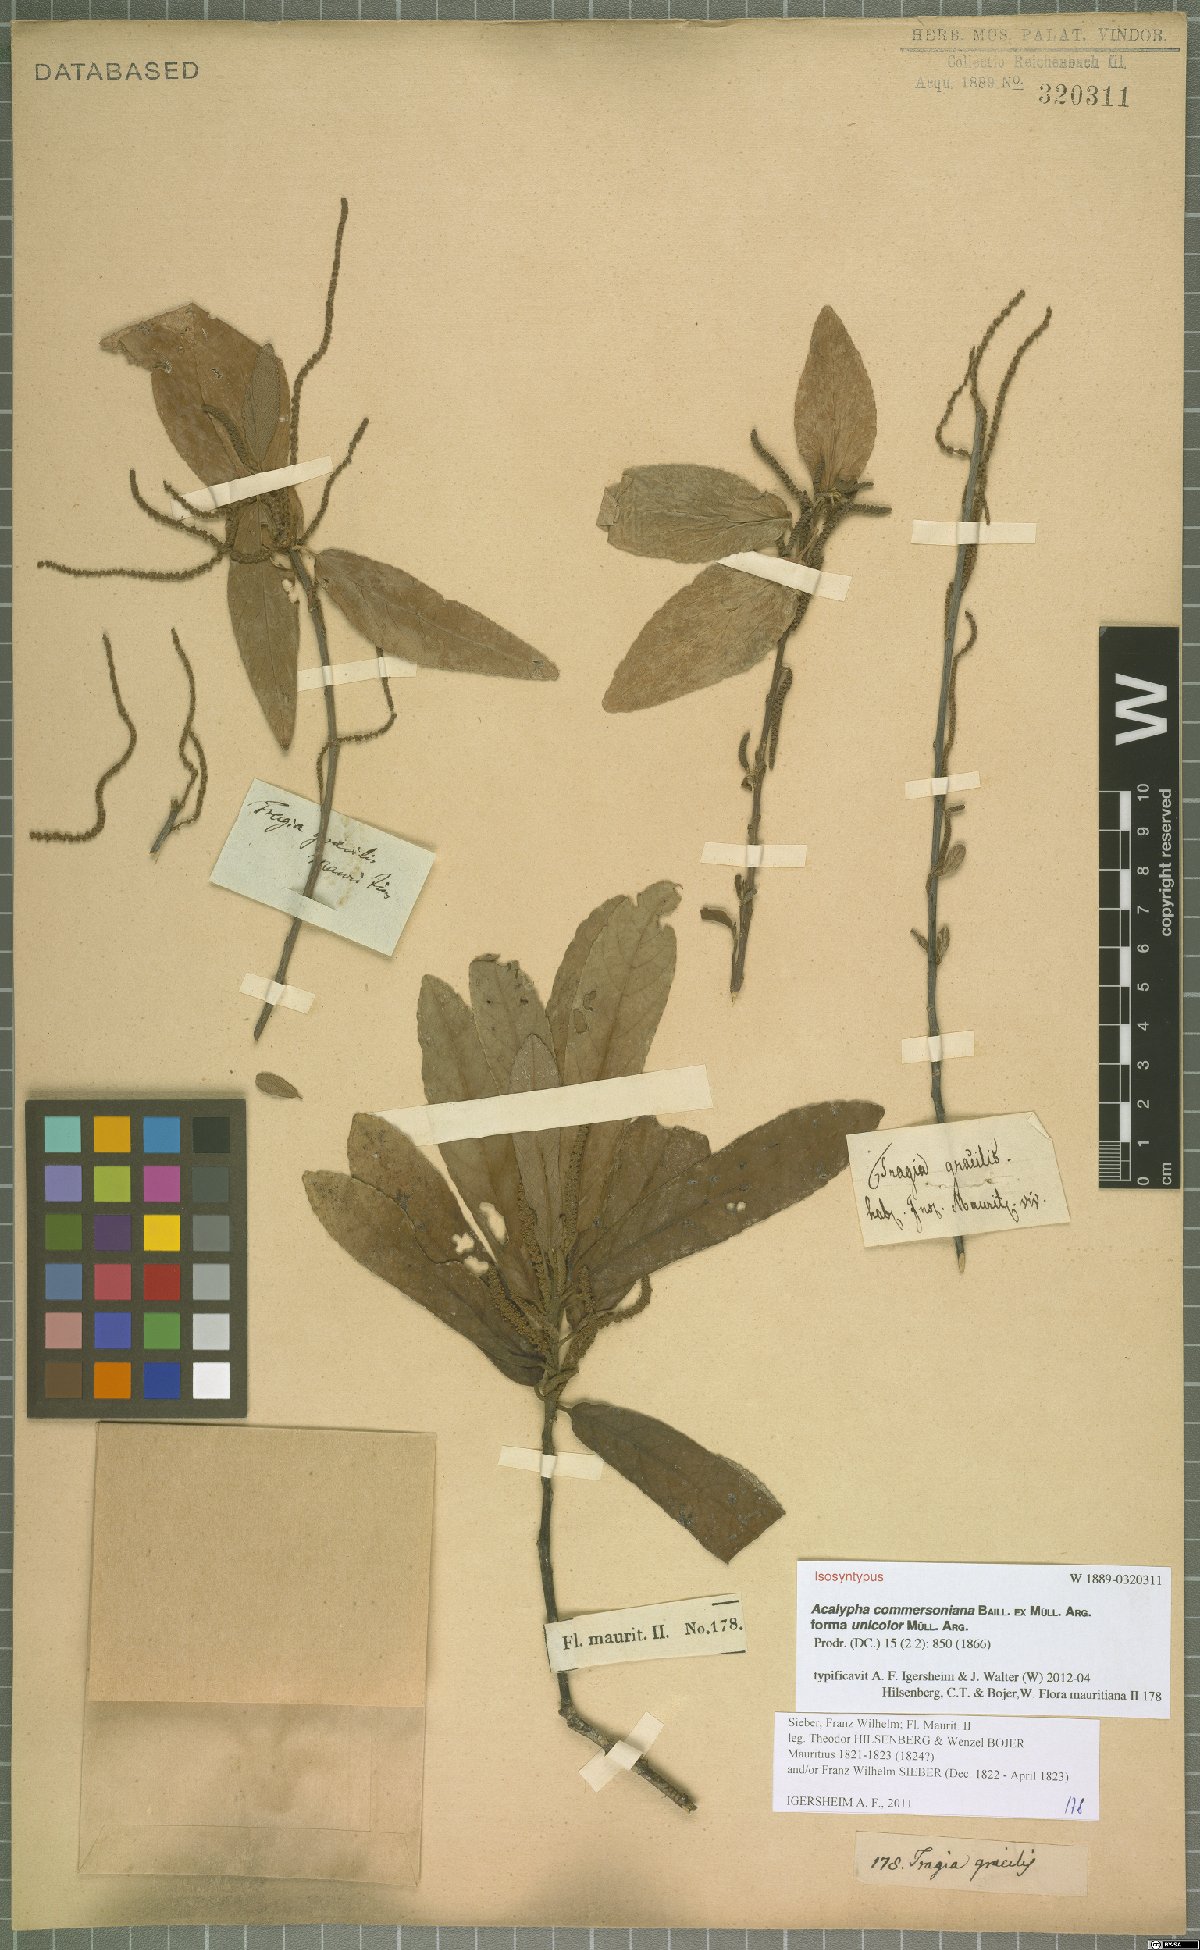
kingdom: Plantae
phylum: Tracheophyta
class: Magnoliopsida
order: Malpighiales
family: Euphorbiaceae
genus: Acalypha
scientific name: Acalypha integrifolia
